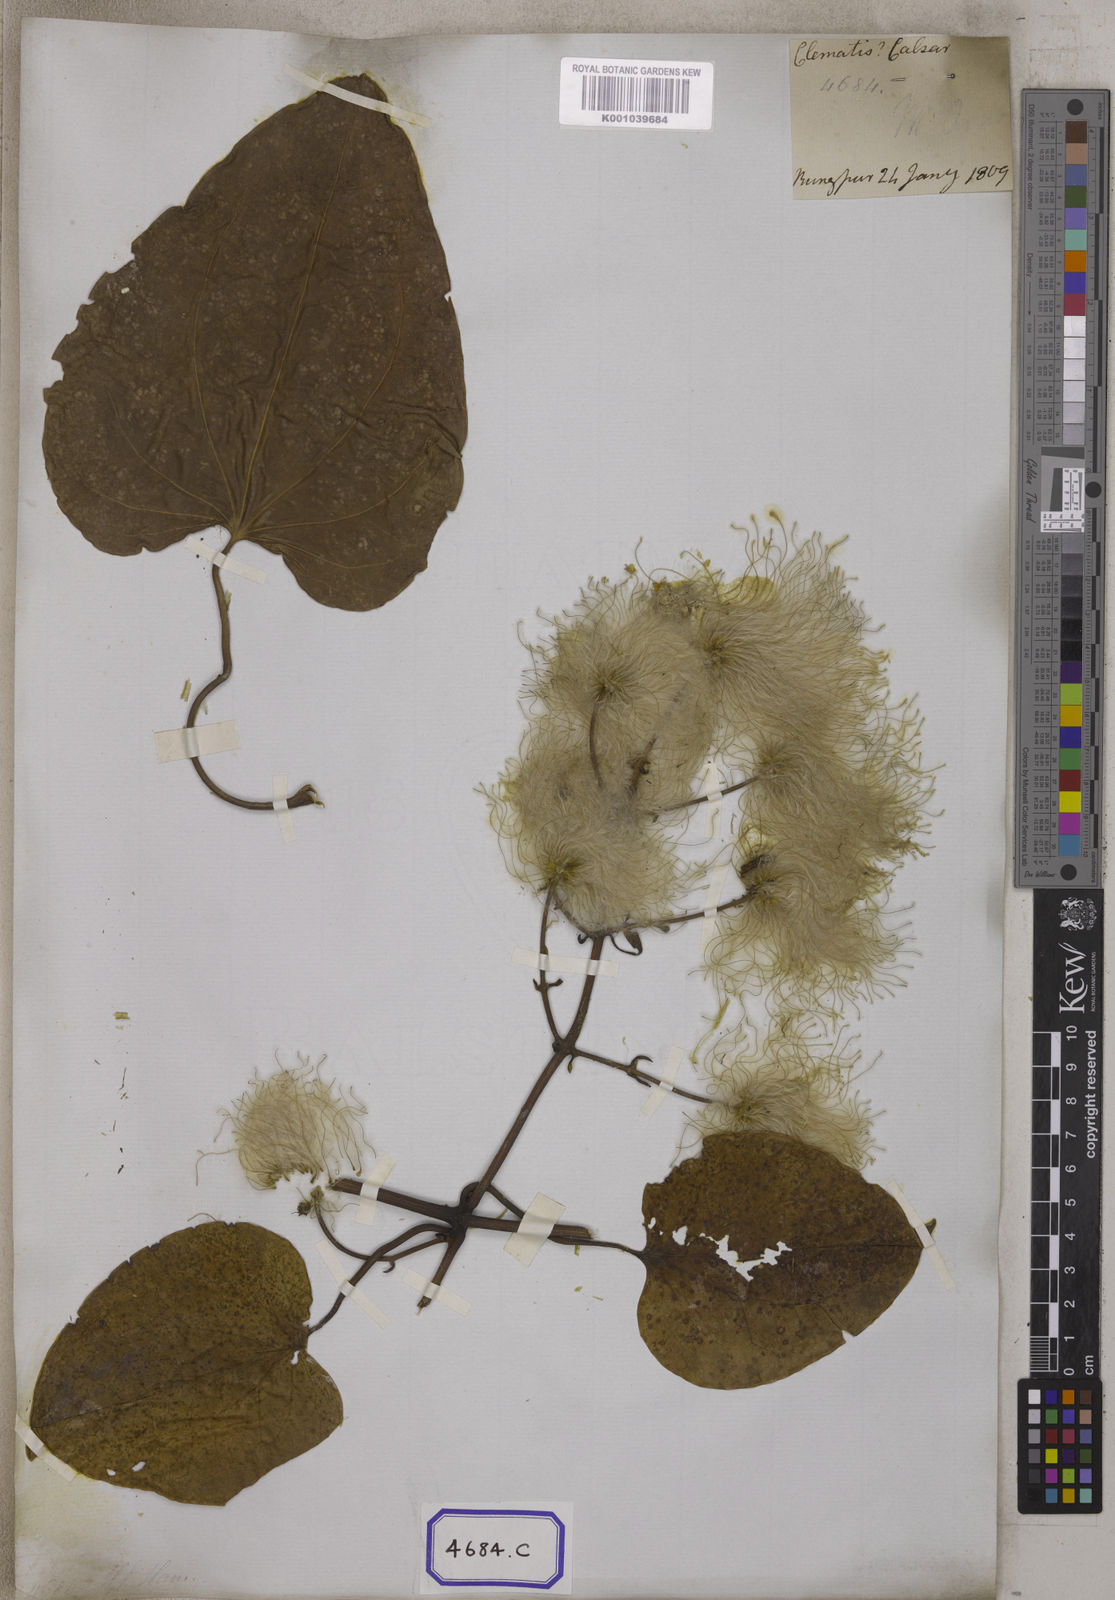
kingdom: Plantae
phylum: Tracheophyta
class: Magnoliopsida
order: Ranunculales
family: Ranunculaceae
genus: Clematis
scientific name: Clematis smilacifolia
